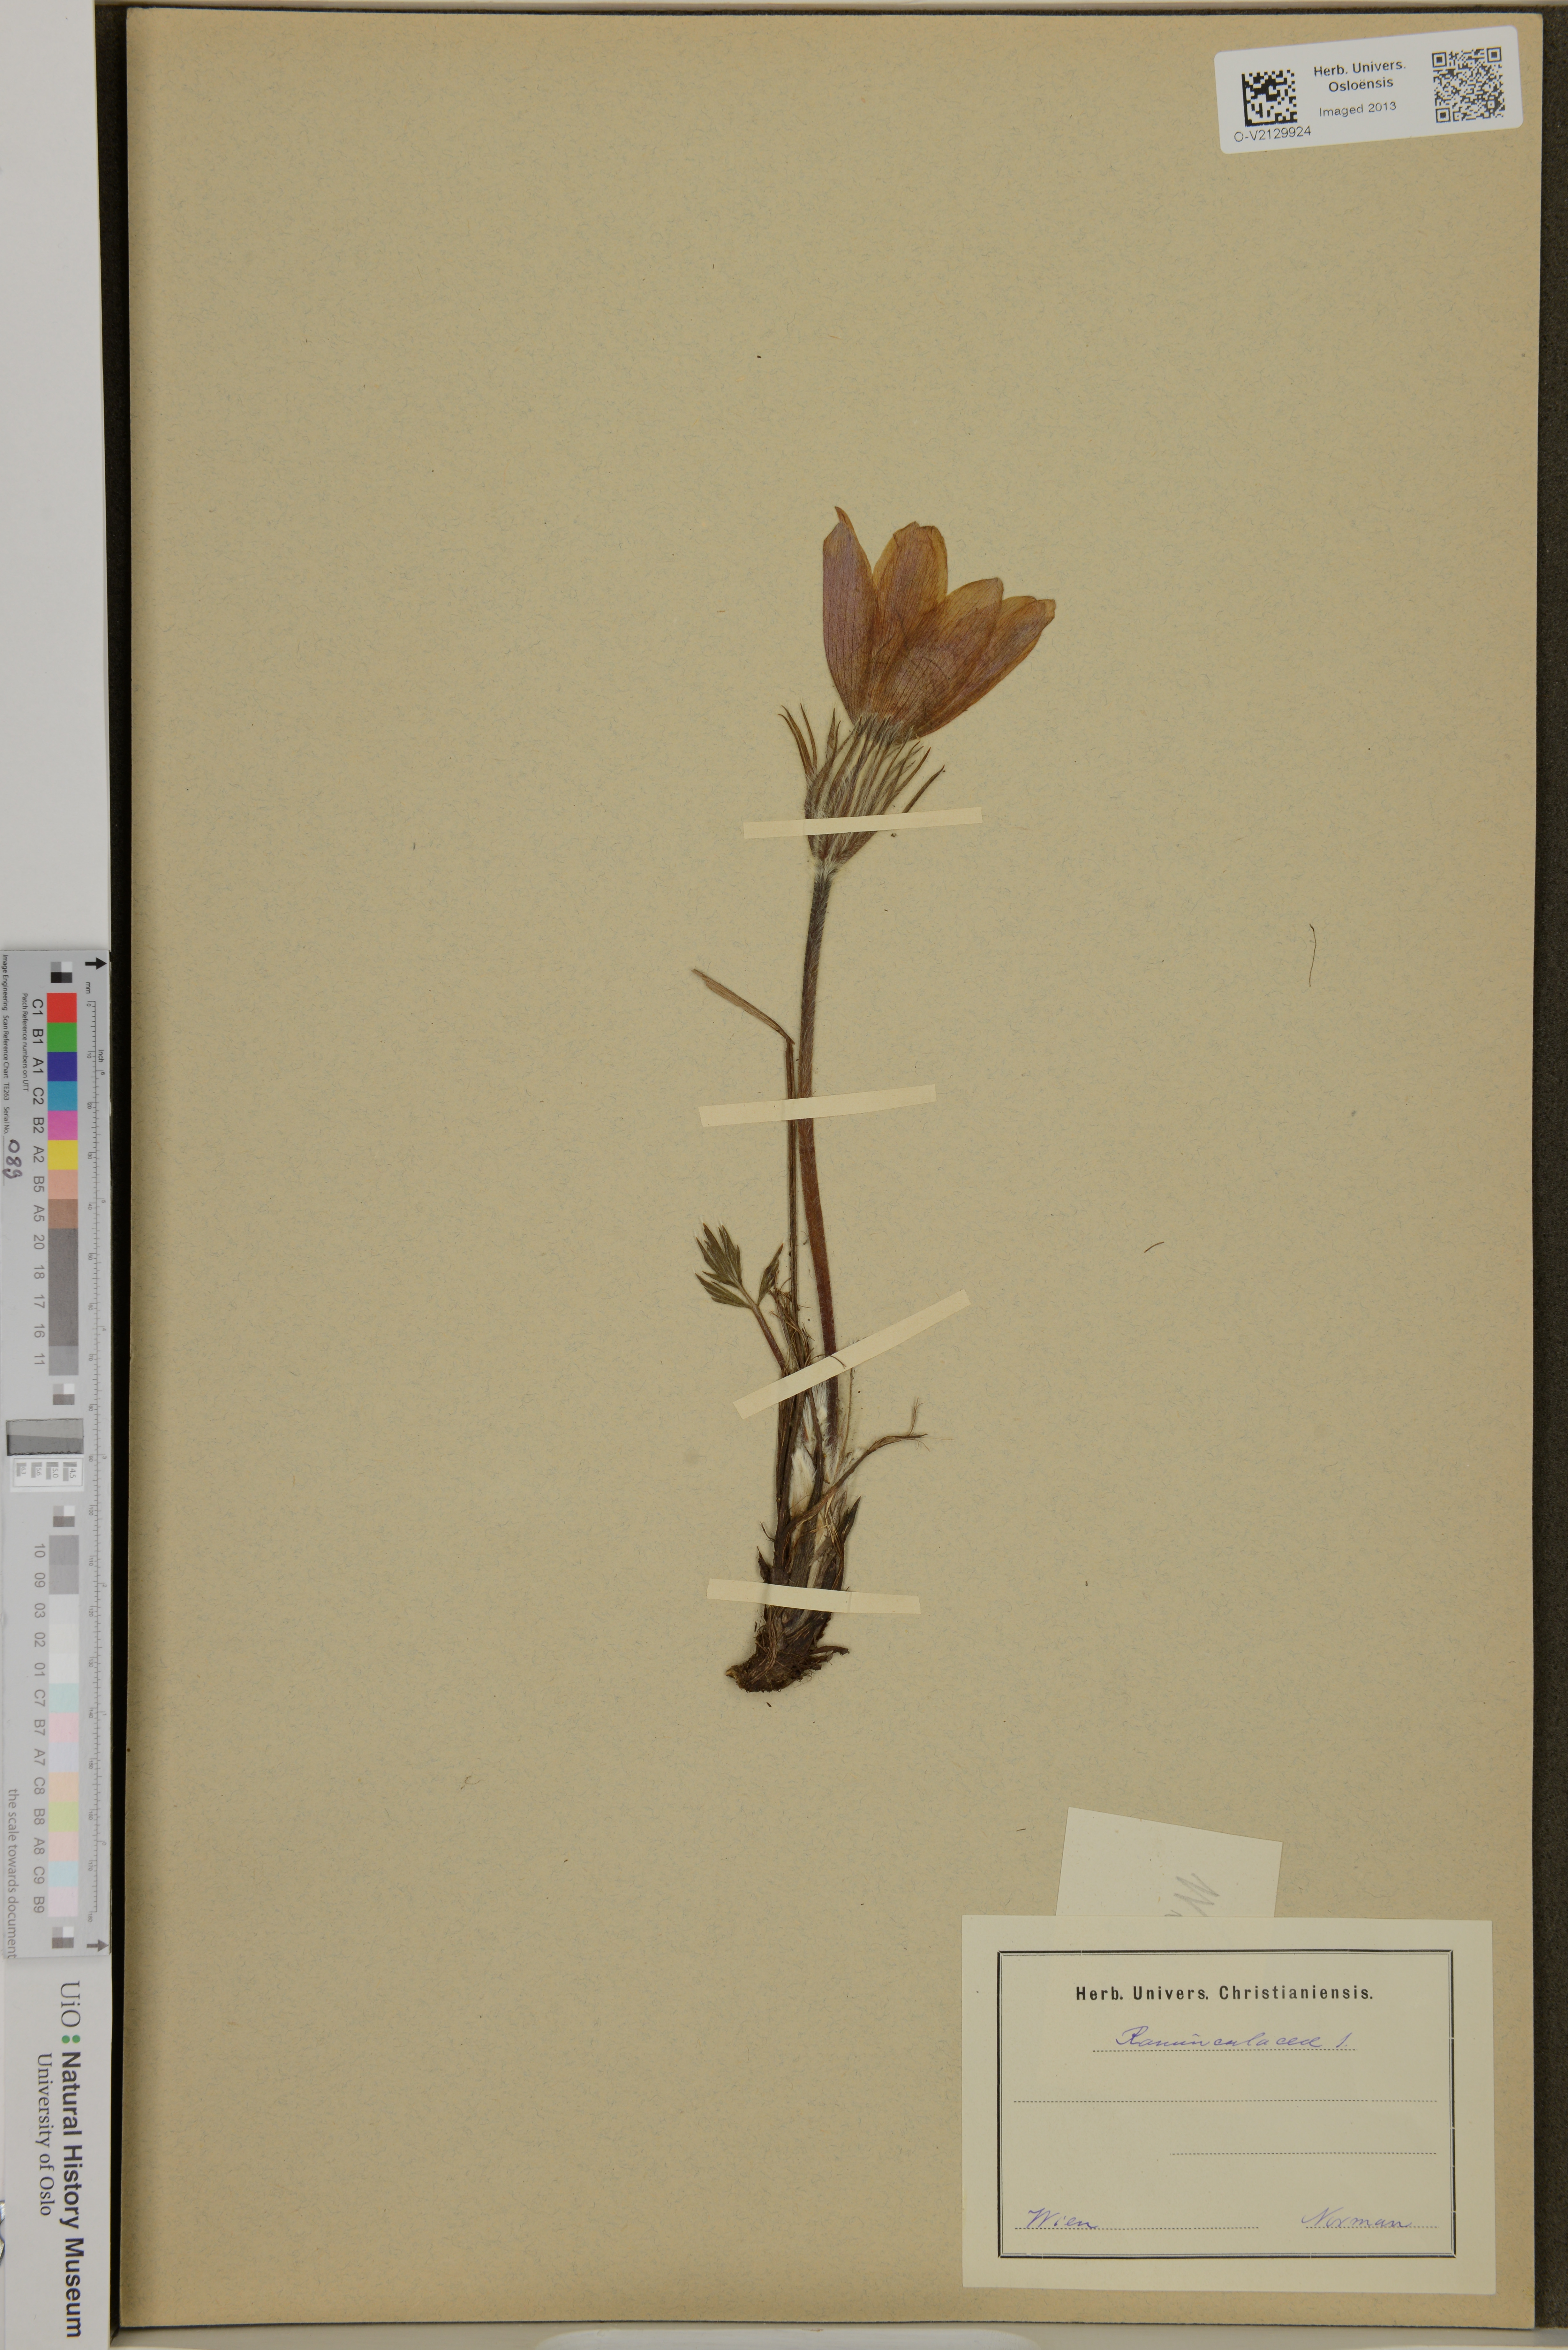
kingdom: Plantae
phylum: Tracheophyta
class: Magnoliopsida
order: Ranunculales
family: Ranunculaceae
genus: Ranunculus
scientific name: Ranunculus
